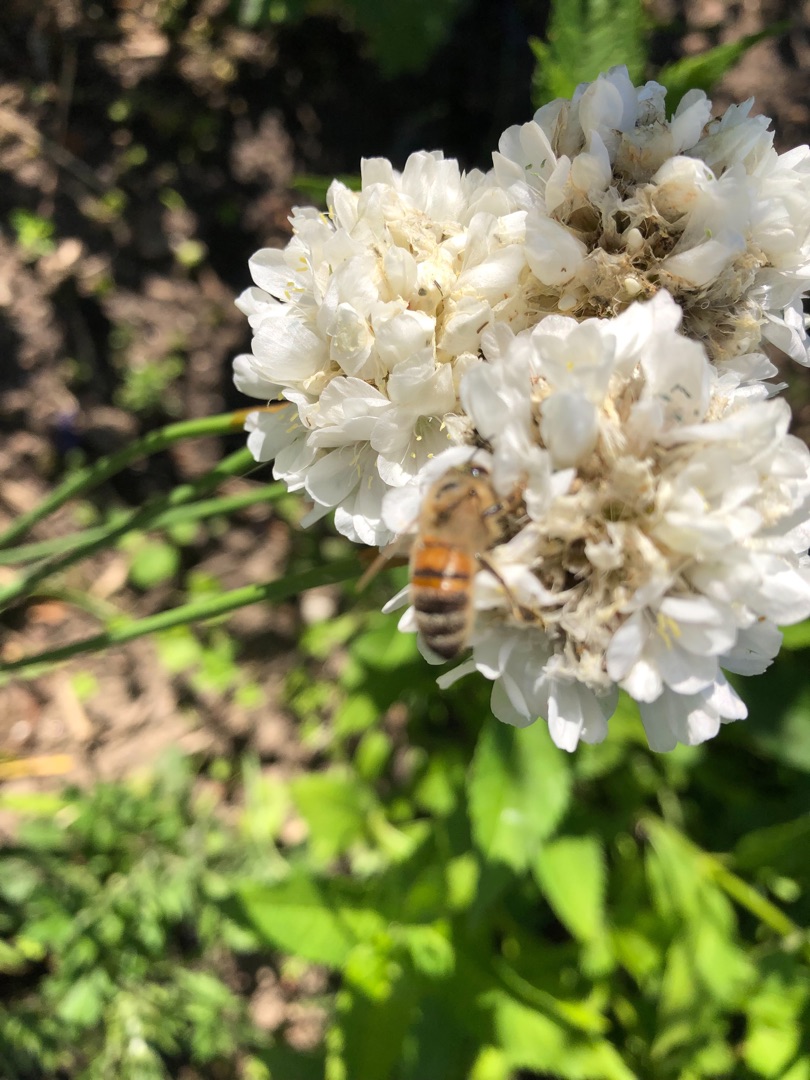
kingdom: Animalia
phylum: Arthropoda
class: Insecta
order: Hymenoptera
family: Apidae
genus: Apis
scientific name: Apis mellifera
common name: Honningbi
